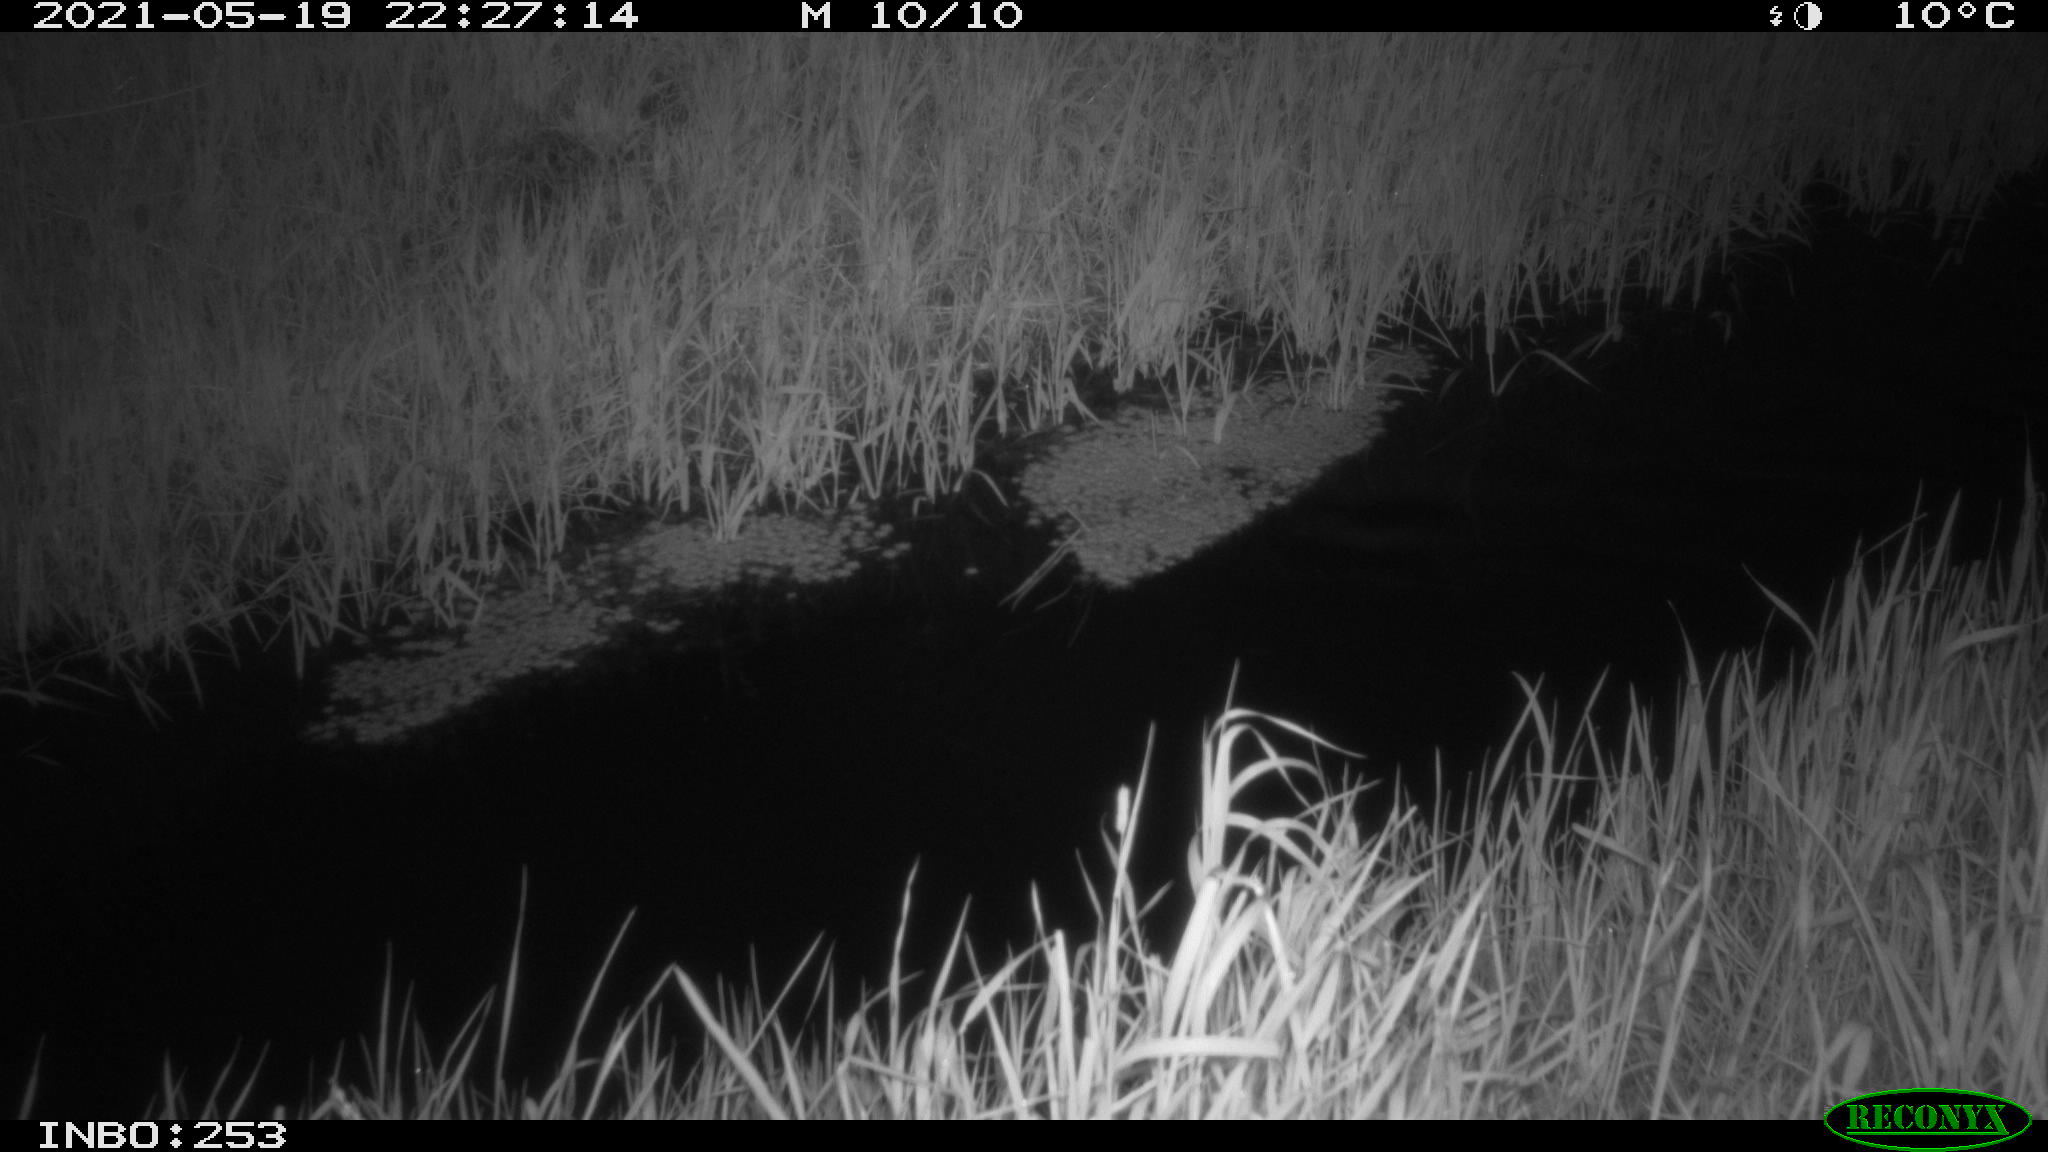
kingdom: Animalia
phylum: Chordata
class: Aves
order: Anseriformes
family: Anatidae
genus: Anas
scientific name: Anas platyrhynchos
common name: Mallard
